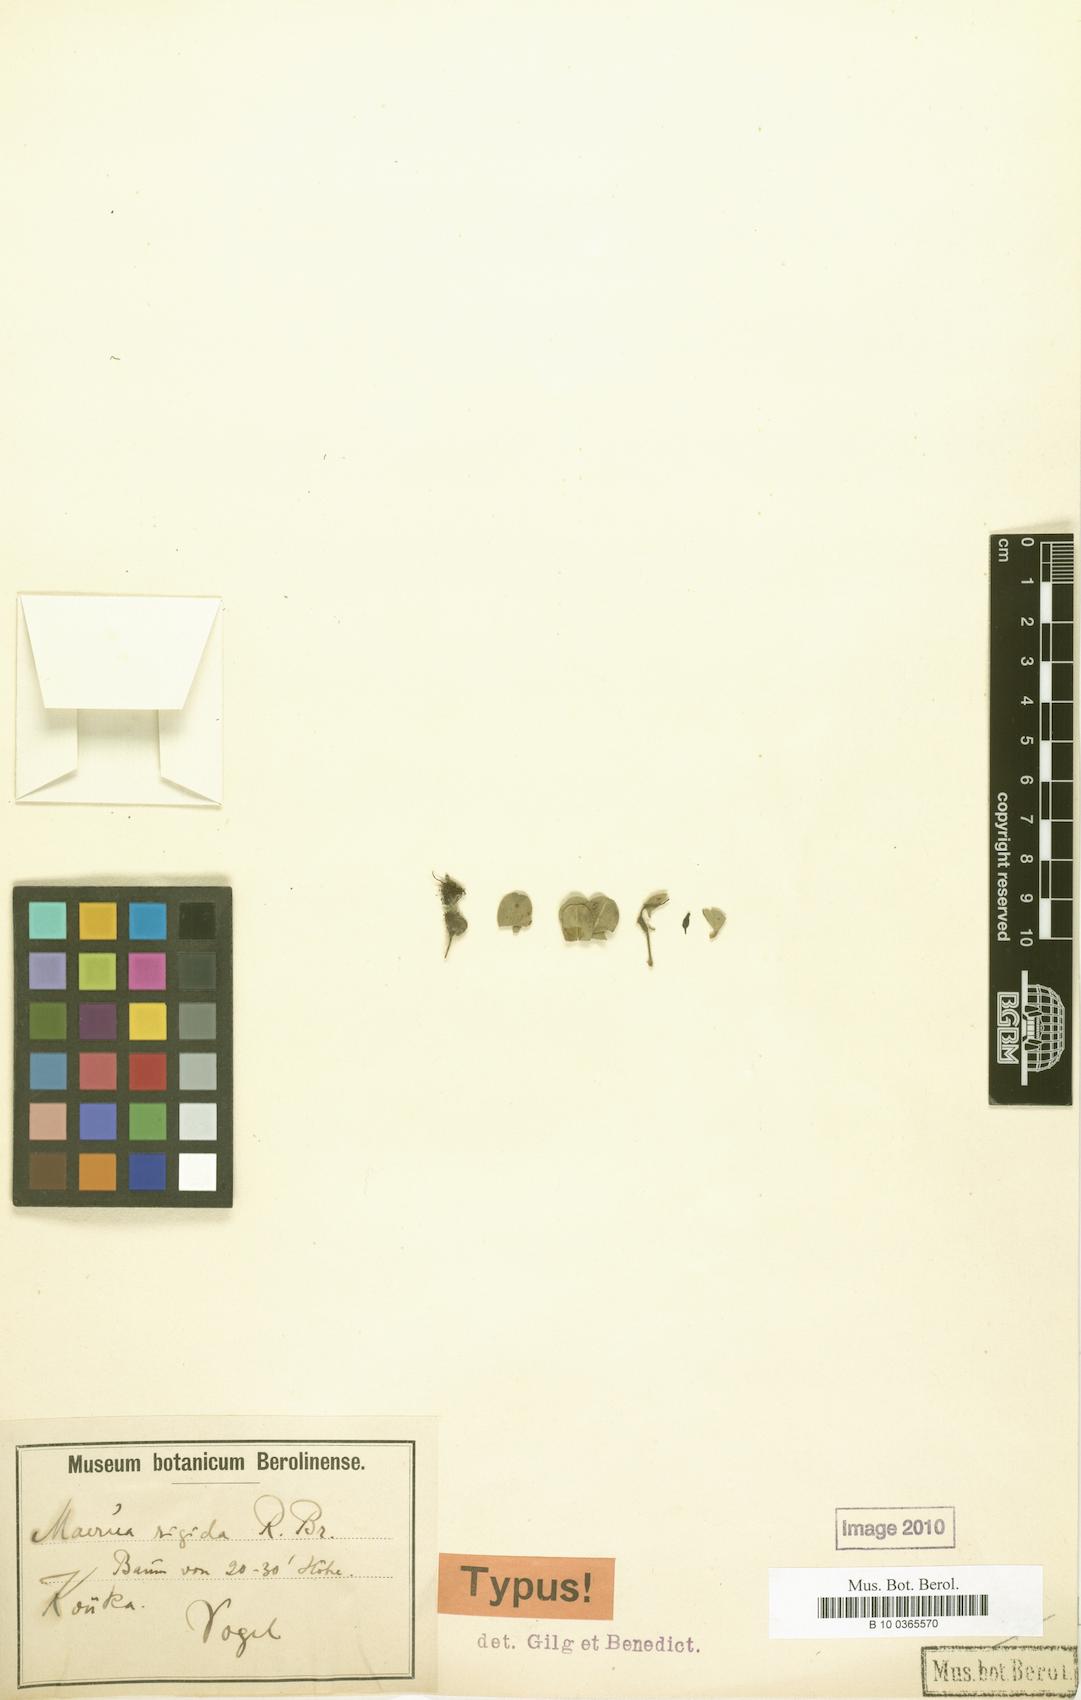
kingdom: Plantae
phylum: Tracheophyta
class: Magnoliopsida
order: Brassicales
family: Capparaceae
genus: Maerua
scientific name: Maerua crassifolia
